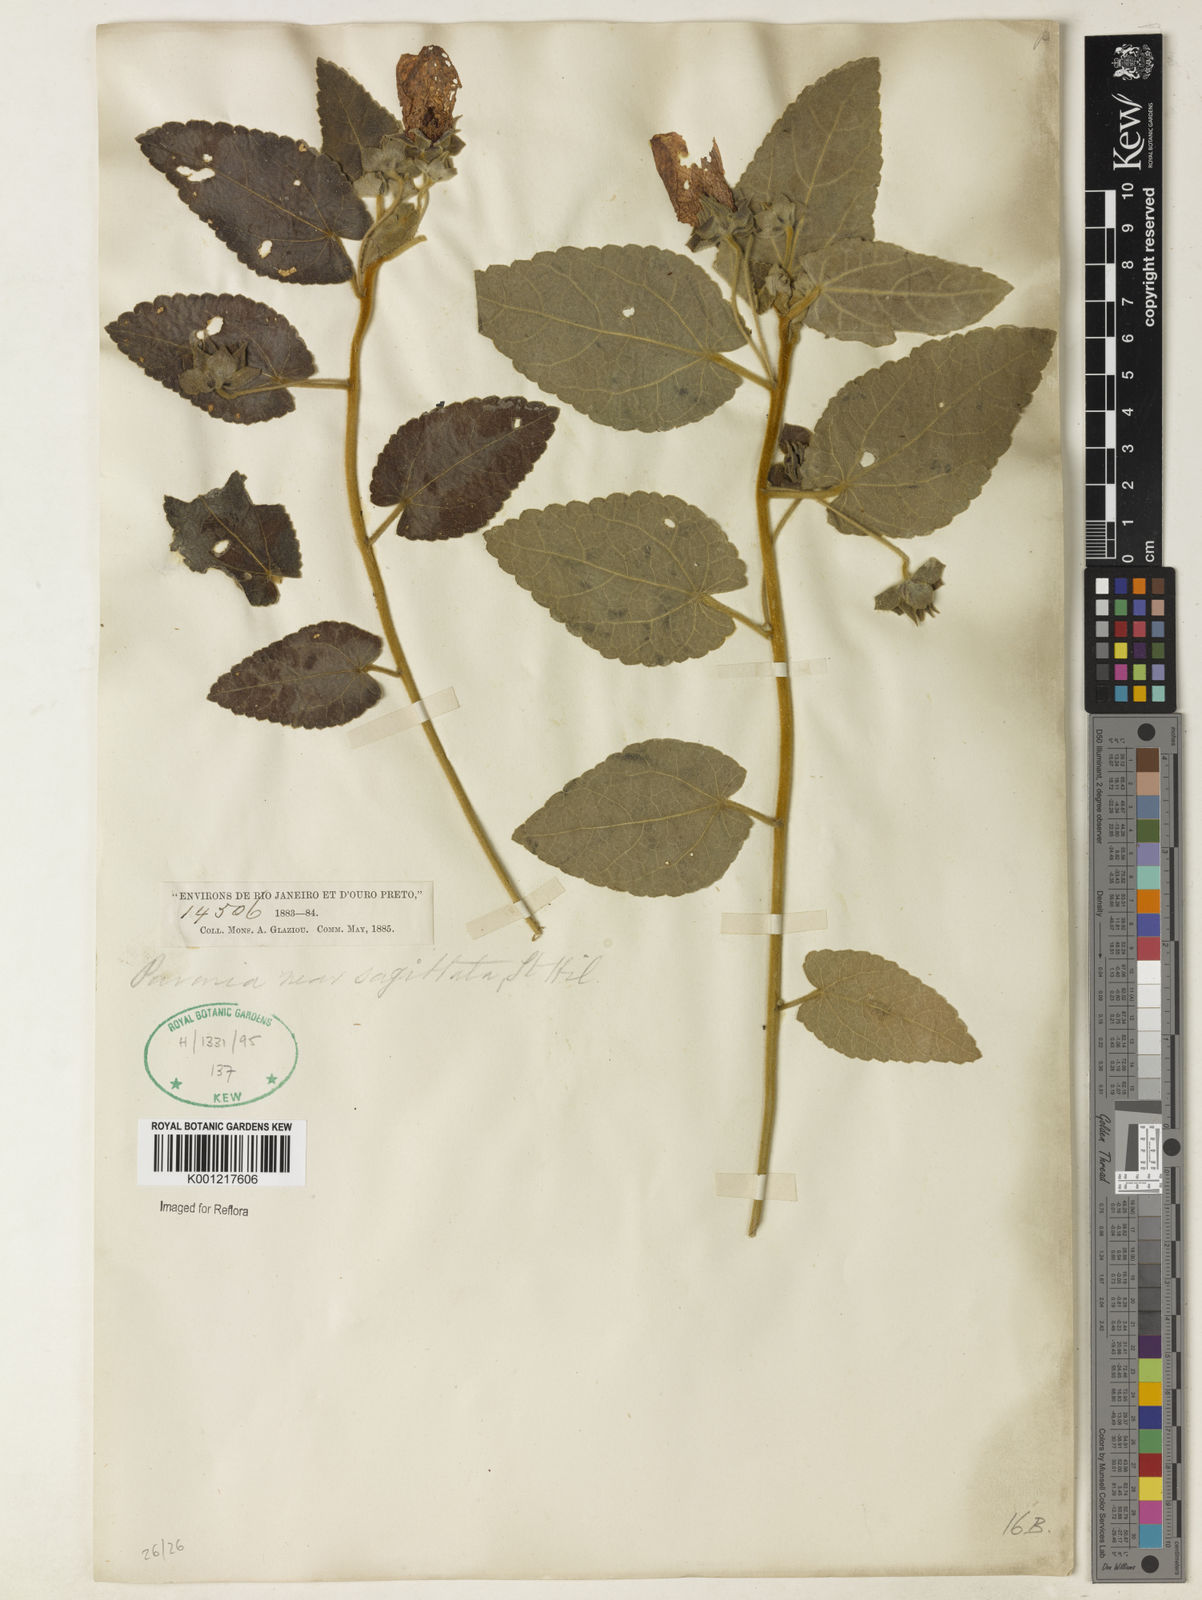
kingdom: Plantae
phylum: Tracheophyta
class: Magnoliopsida
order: Malvales
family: Malvaceae
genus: Pavonia
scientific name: Pavonia
